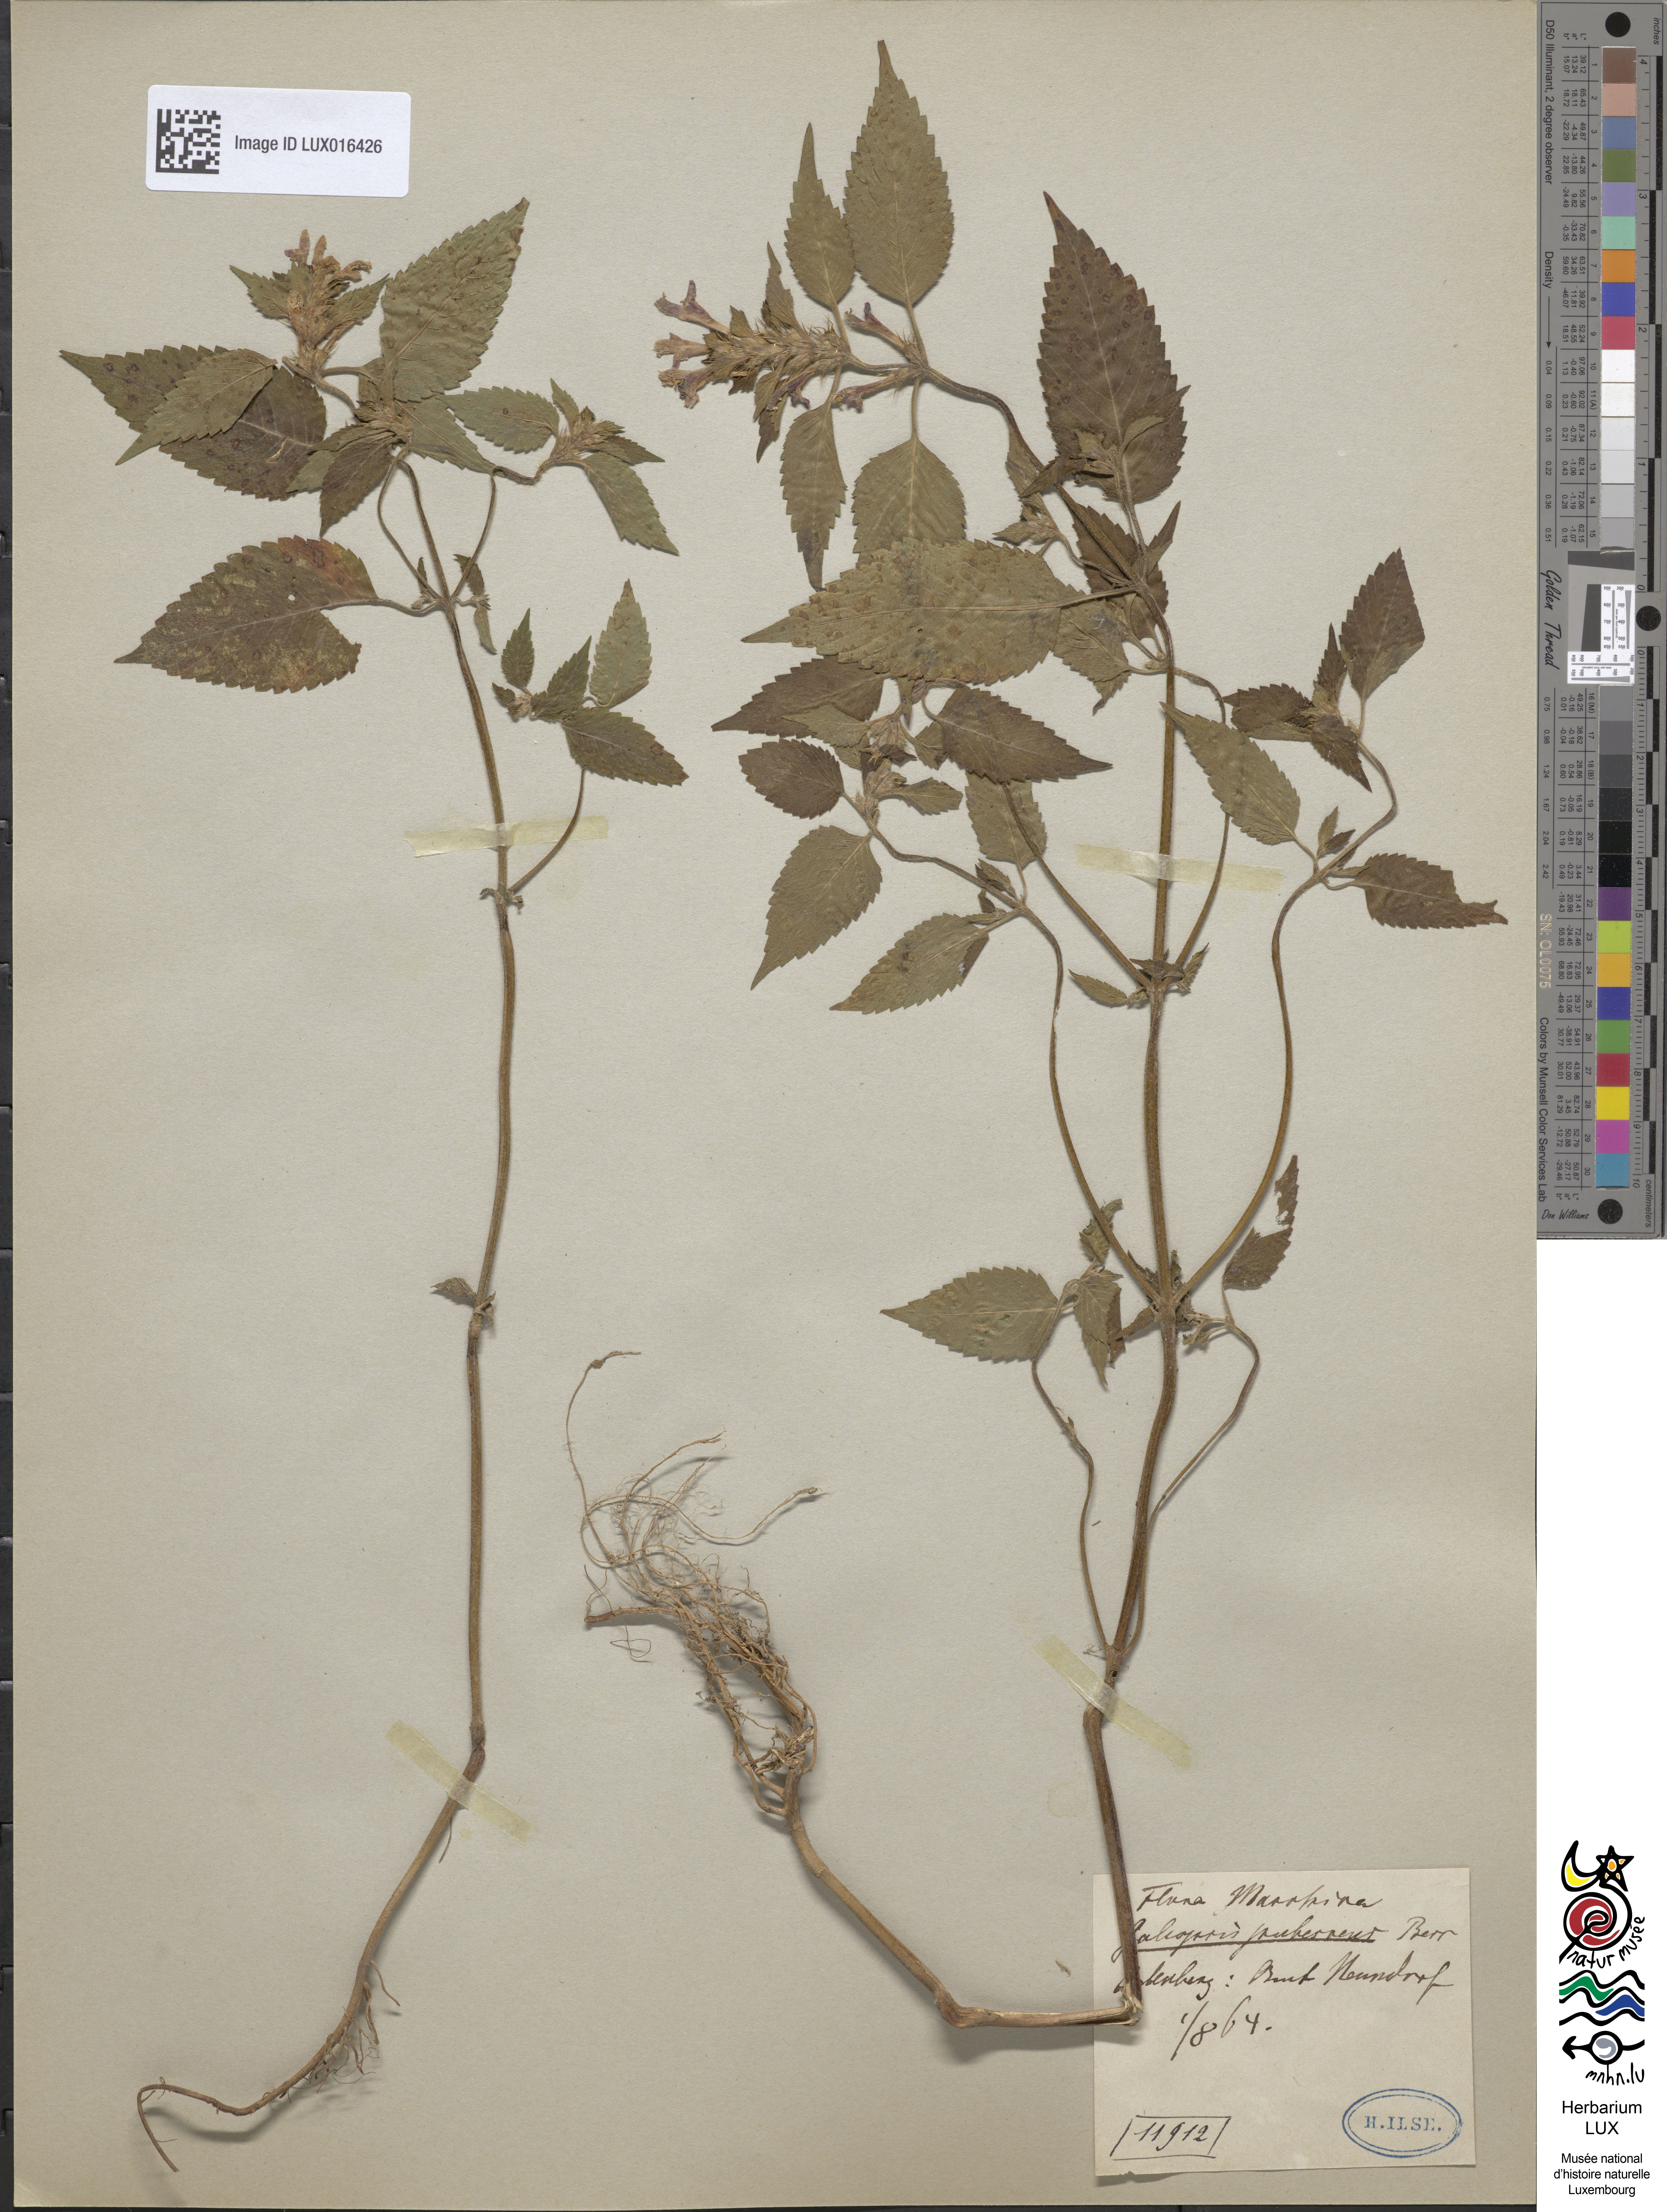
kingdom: Plantae
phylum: Tracheophyta
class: Magnoliopsida
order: Lamiales
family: Lamiaceae
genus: Galeopsis
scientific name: Galeopsis pubescens
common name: Downy hemp-nettle
